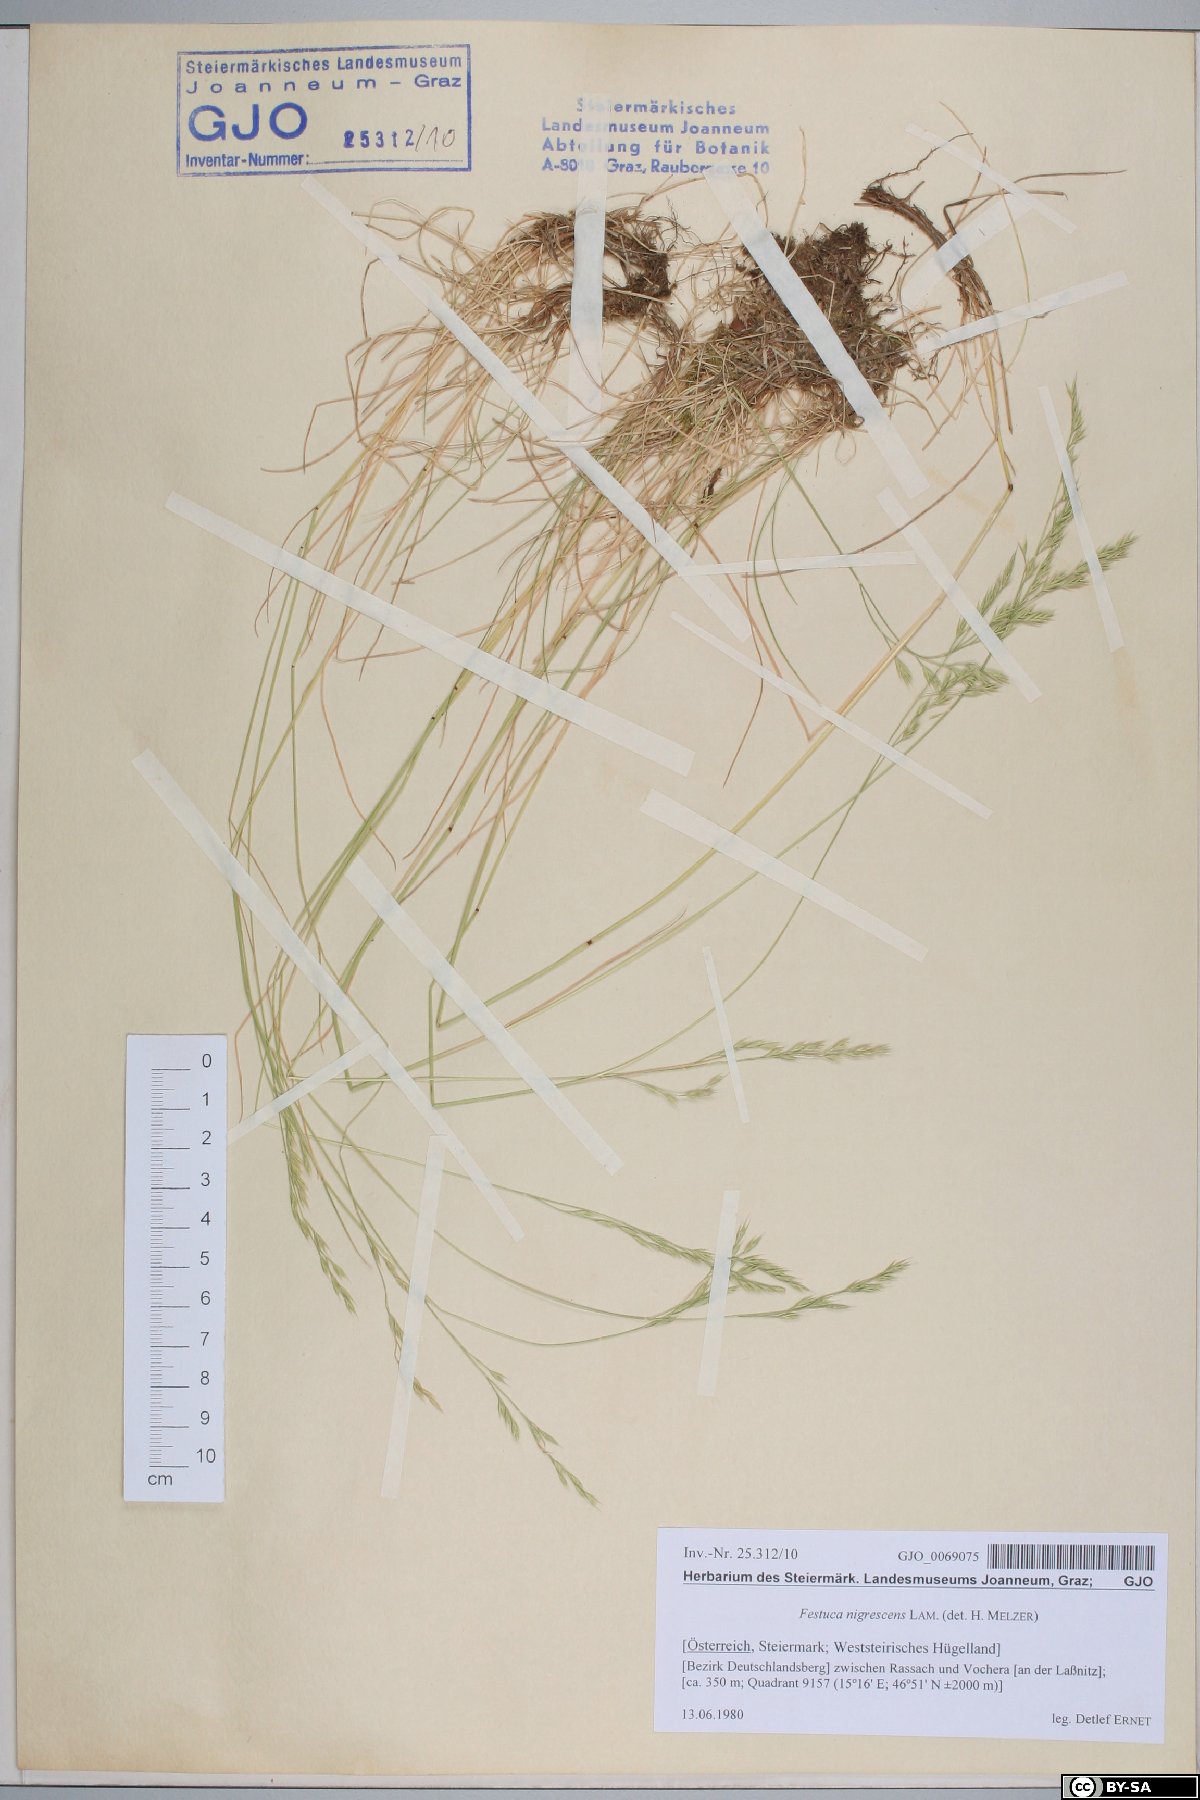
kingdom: Plantae
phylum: Tracheophyta
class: Liliopsida
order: Poales
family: Poaceae
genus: Festuca
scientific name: Festuca nigrescens
